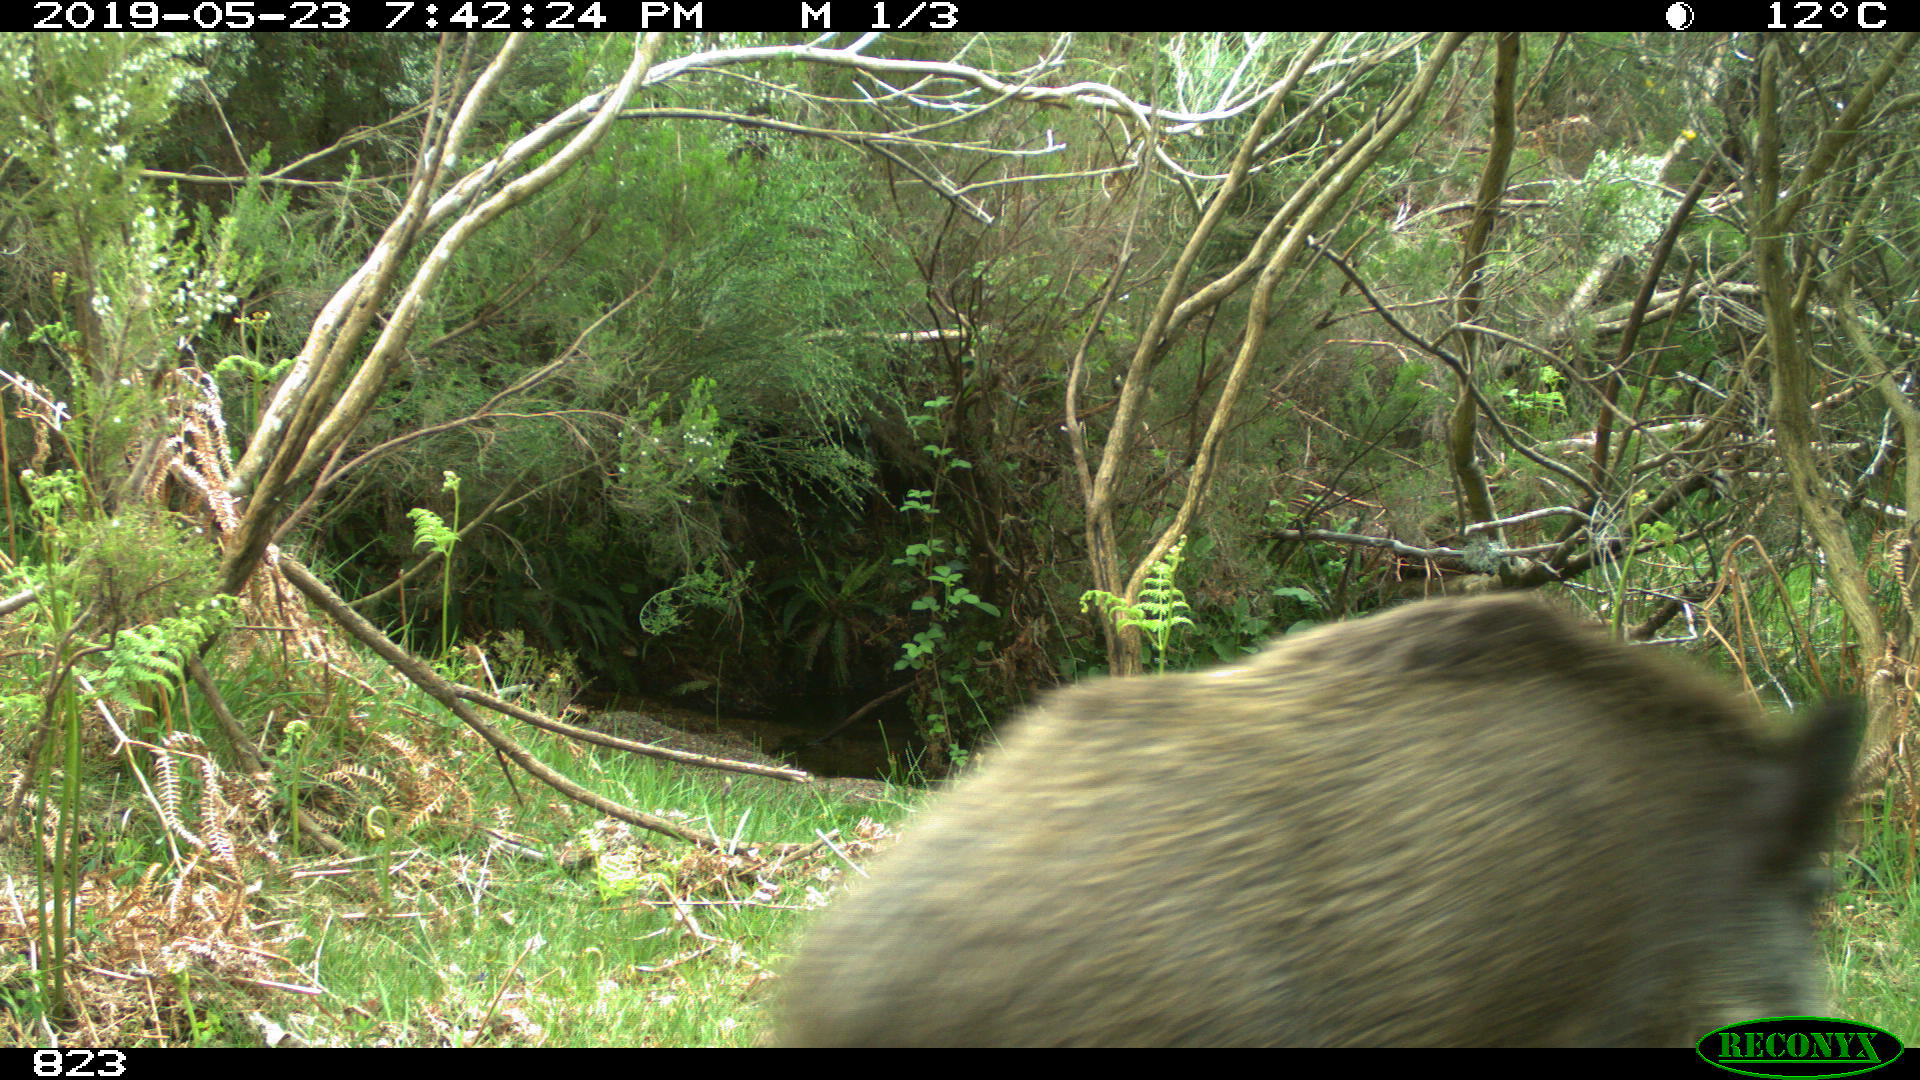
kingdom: Animalia
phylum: Chordata
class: Mammalia
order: Artiodactyla
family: Suidae
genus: Sus
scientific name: Sus scrofa
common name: Wild boar
